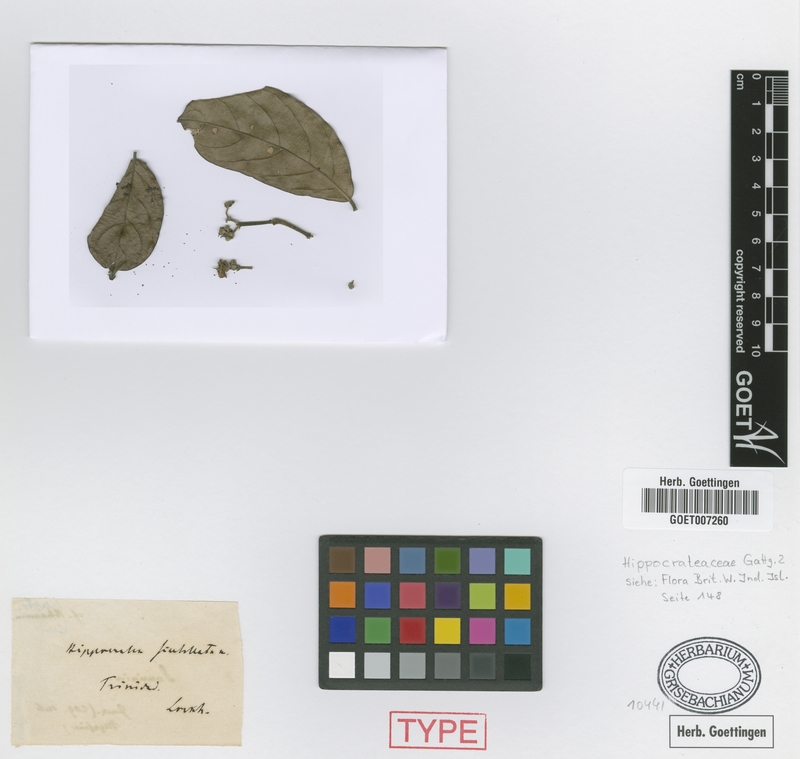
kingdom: Plantae
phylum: Tracheophyta
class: Magnoliopsida
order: Celastrales
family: Celastraceae
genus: Prionostemma
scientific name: Prionostemma aspera
